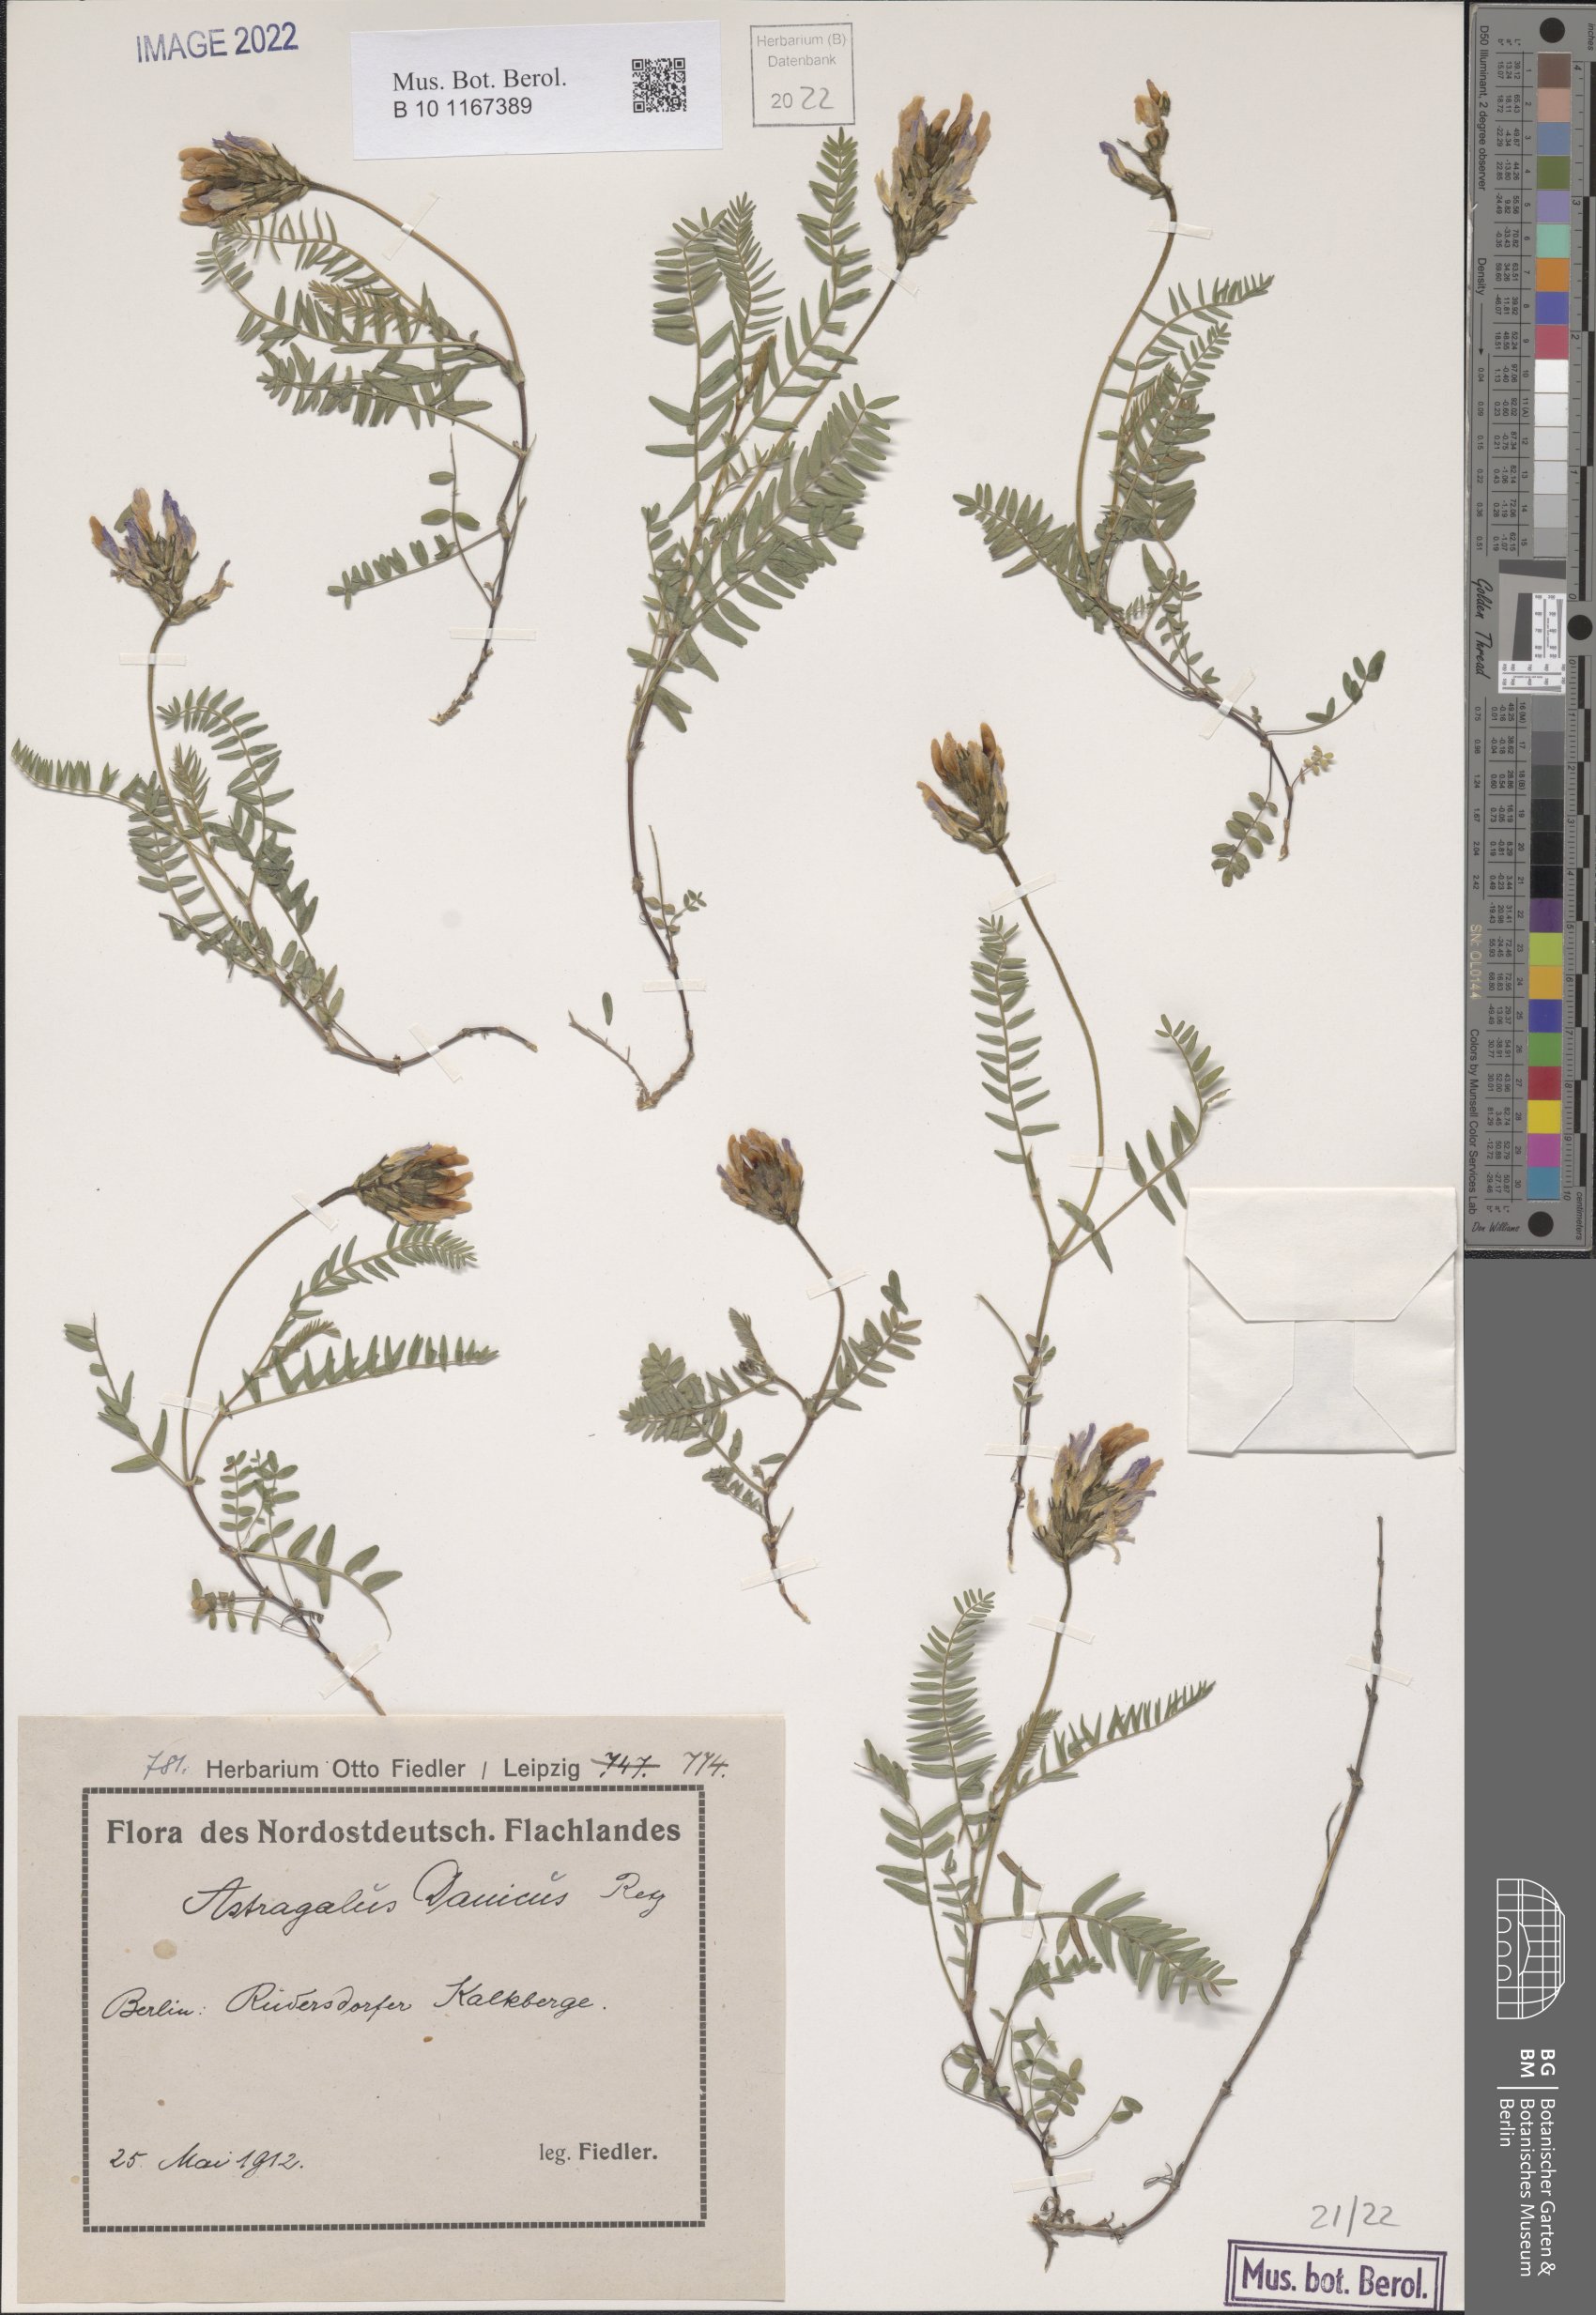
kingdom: Plantae
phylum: Tracheophyta
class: Magnoliopsida
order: Fabales
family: Fabaceae
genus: Astragalus
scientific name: Astragalus danicus
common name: Purple milk-vetch
